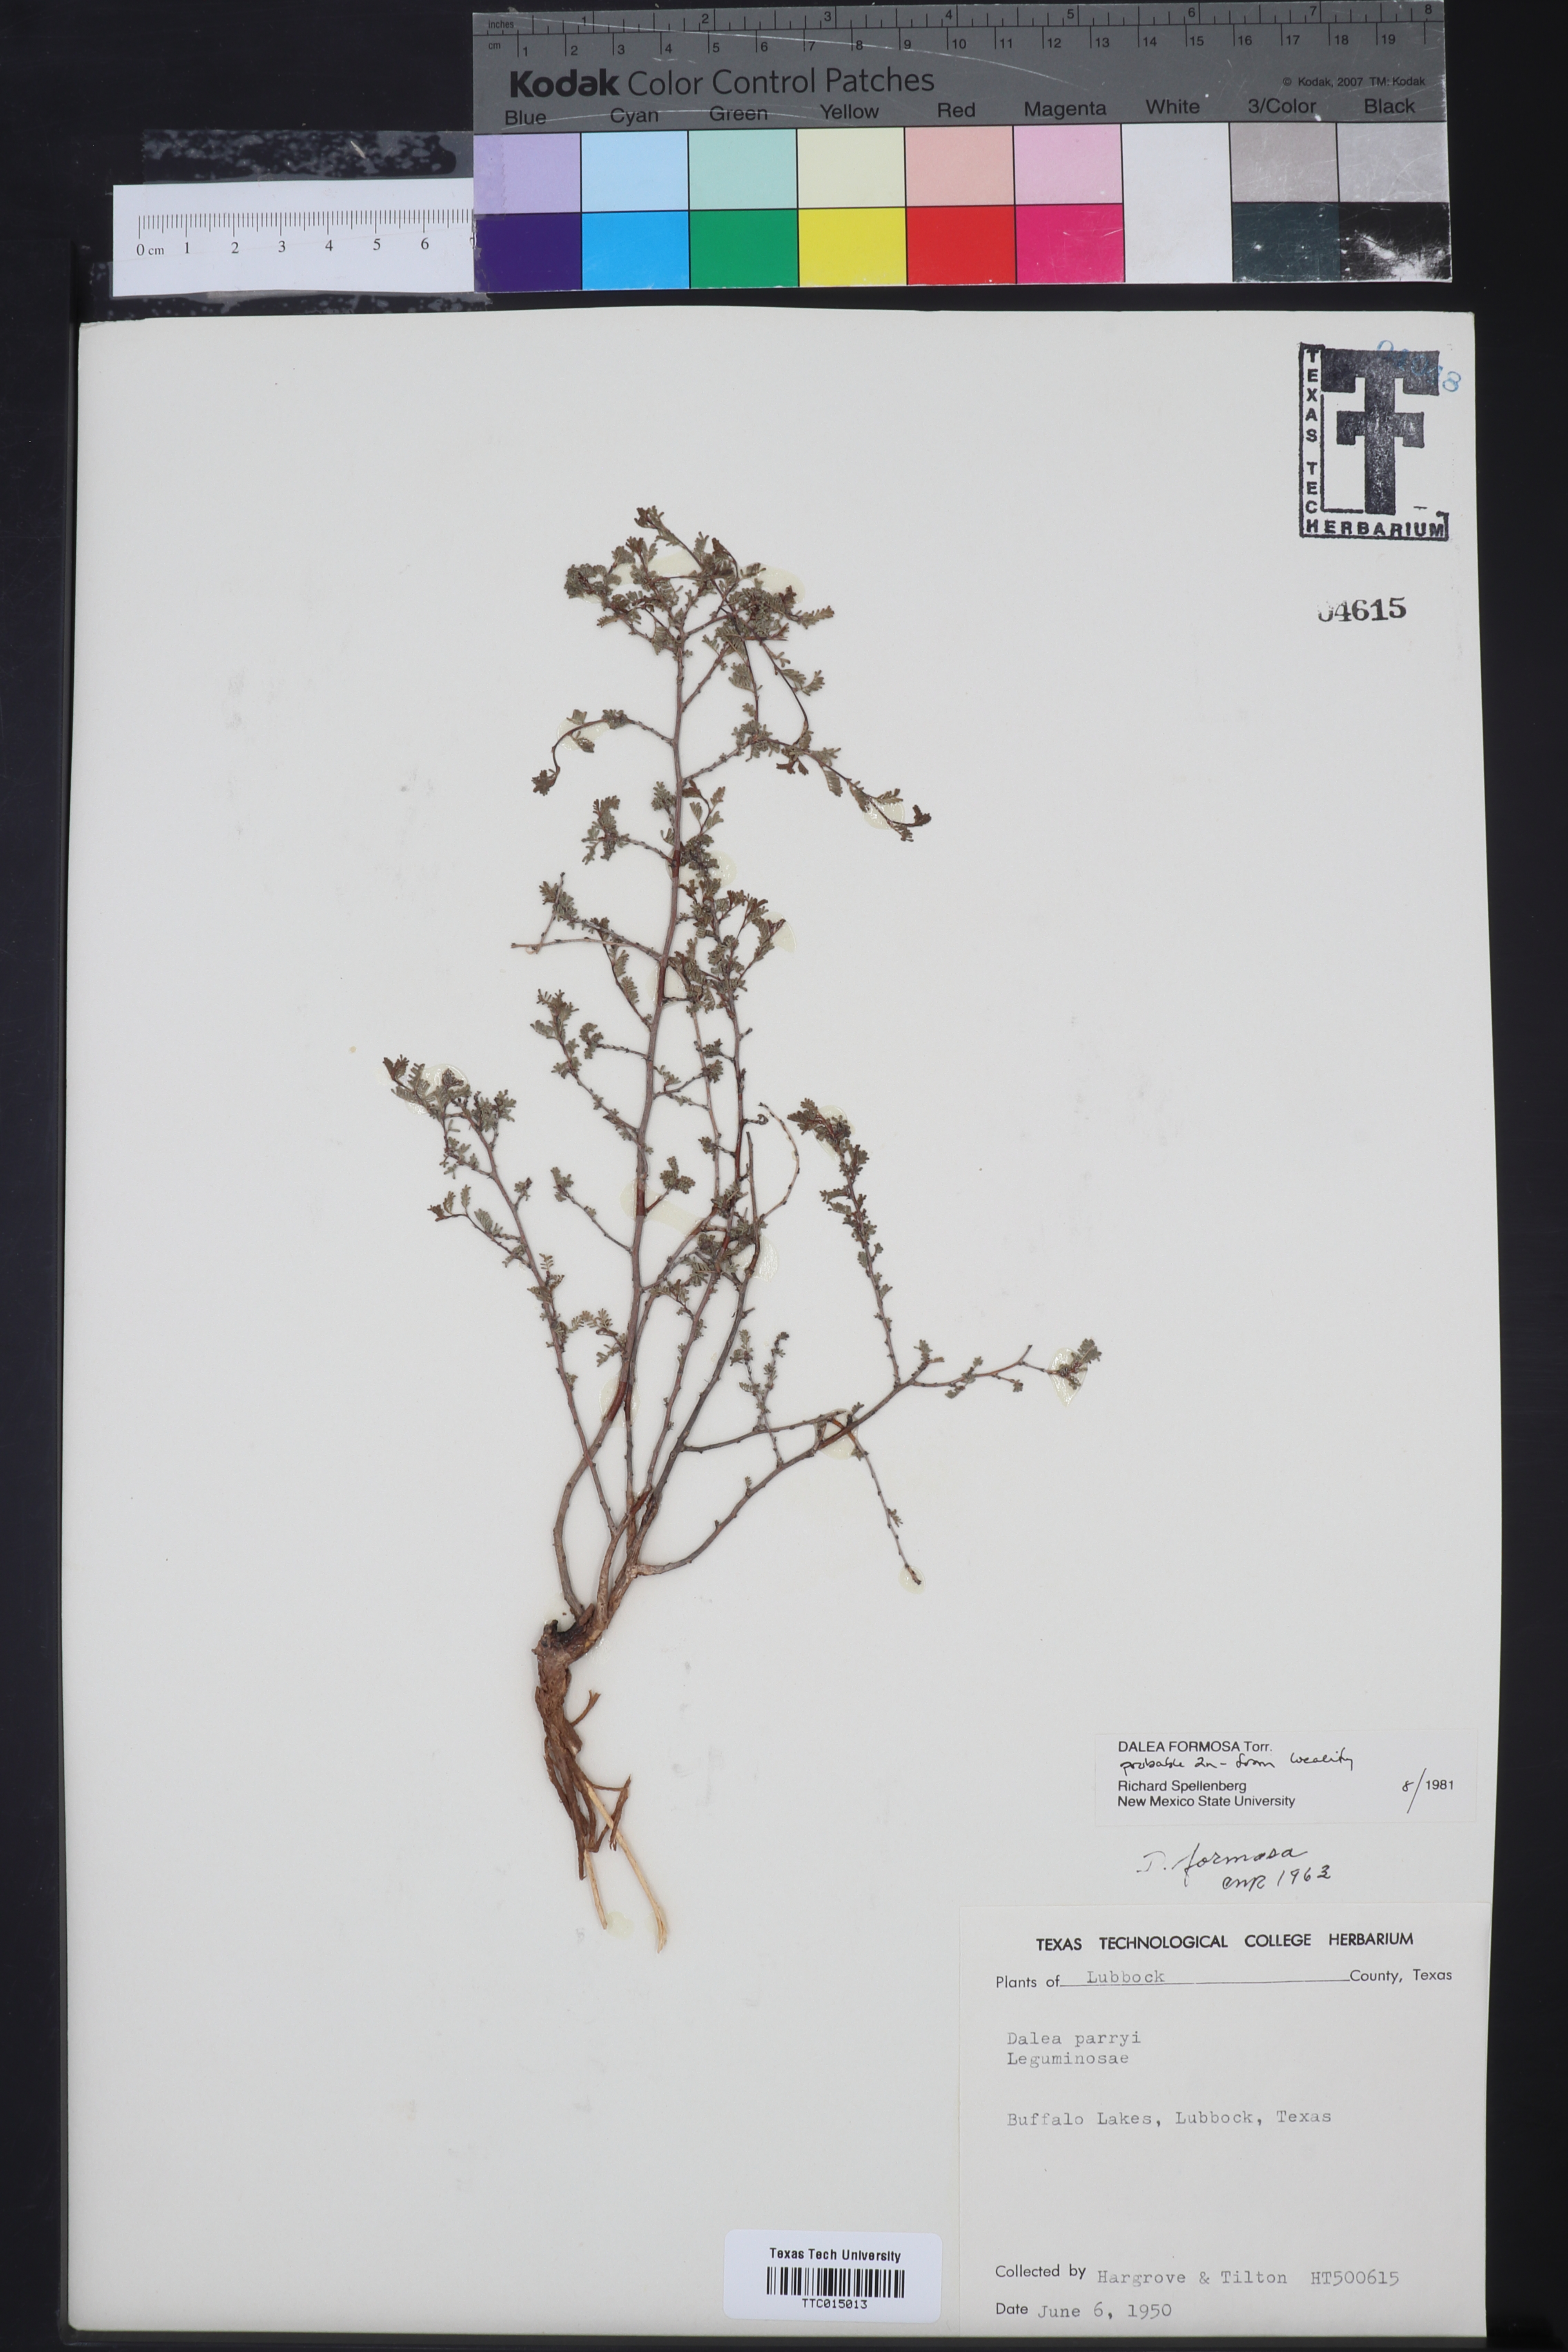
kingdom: Plantae
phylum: Tracheophyta
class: Magnoliopsida
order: Fabales
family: Fabaceae
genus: Dalea
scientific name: Dalea formosa
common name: Feather-plume dalea
